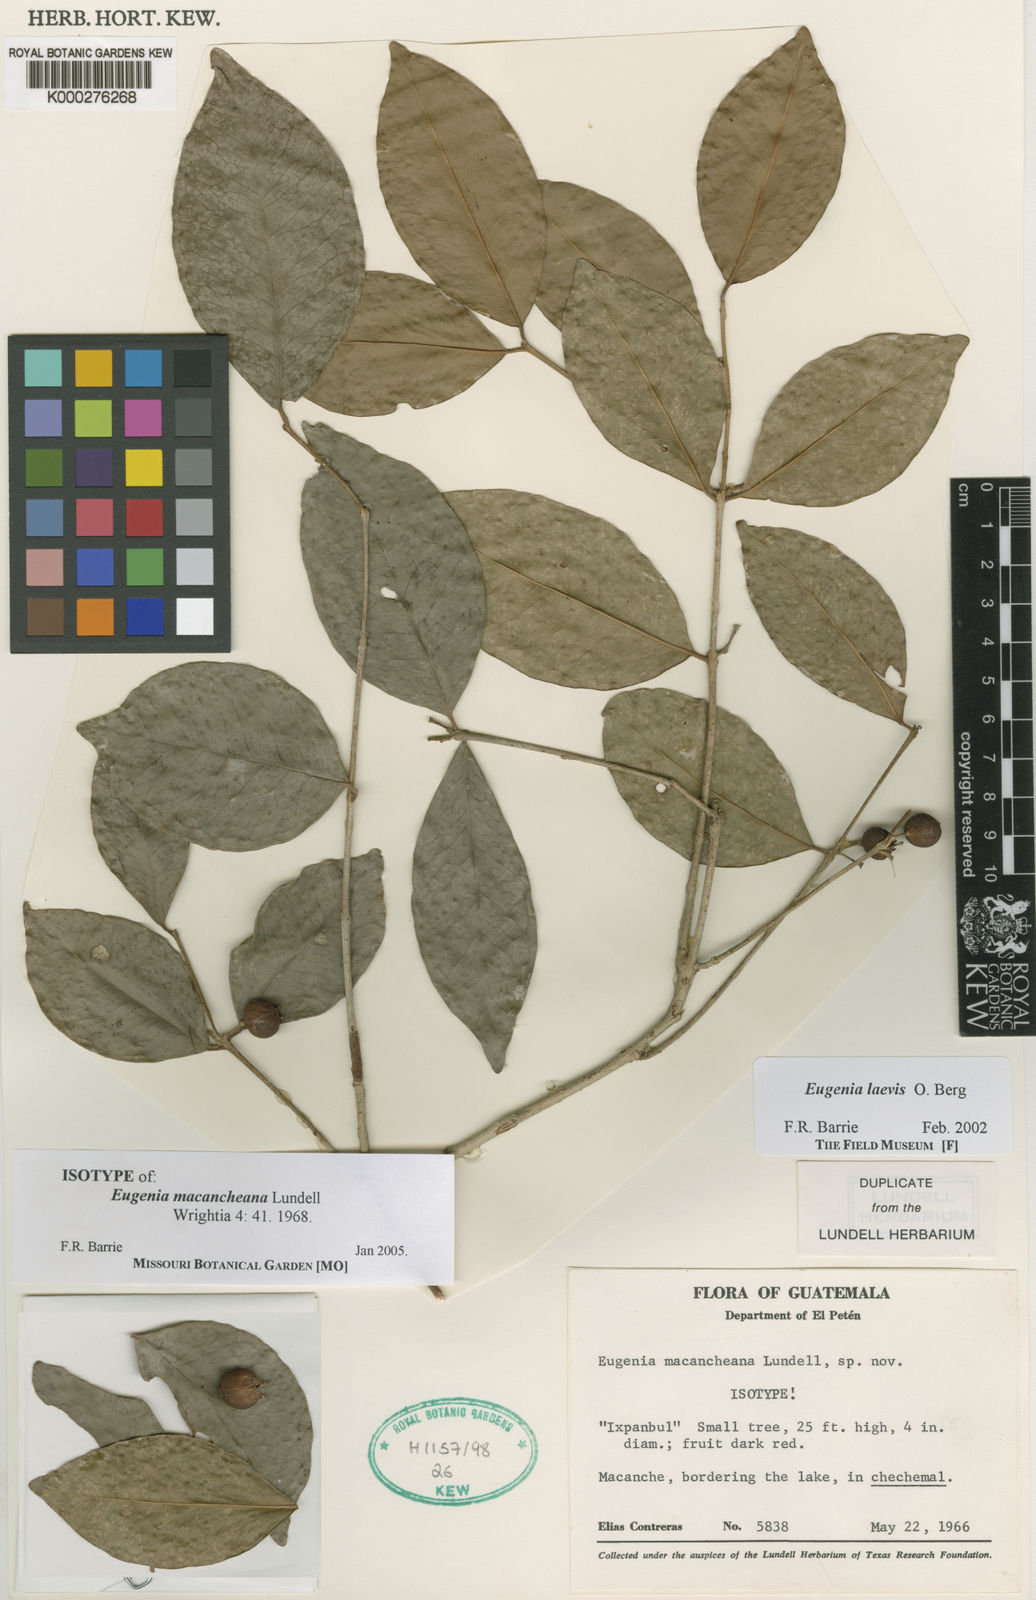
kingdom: Plantae
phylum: Tracheophyta
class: Magnoliopsida
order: Myrtales
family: Myrtaceae
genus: Eugenia
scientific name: Eugenia laevis
